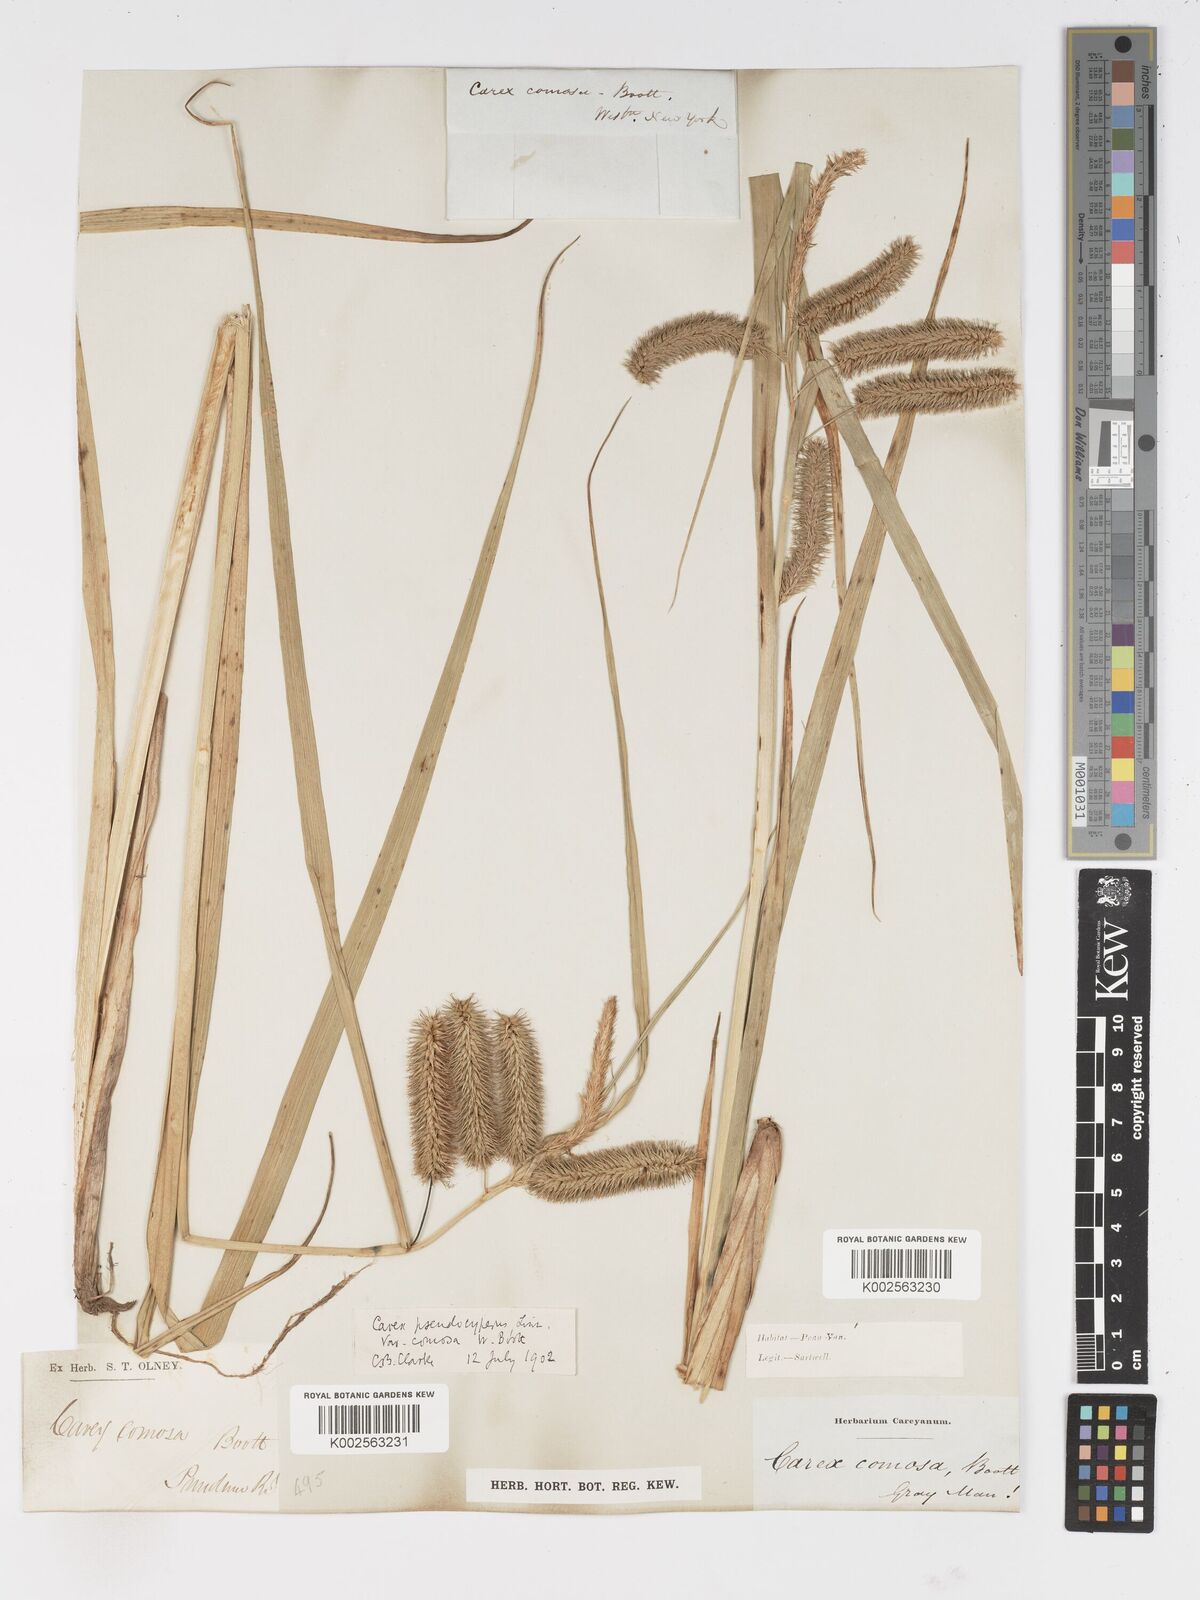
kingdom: Plantae
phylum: Tracheophyta
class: Liliopsida
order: Poales
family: Cyperaceae
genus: Carex
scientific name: Carex comosa
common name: Bristly sedge
